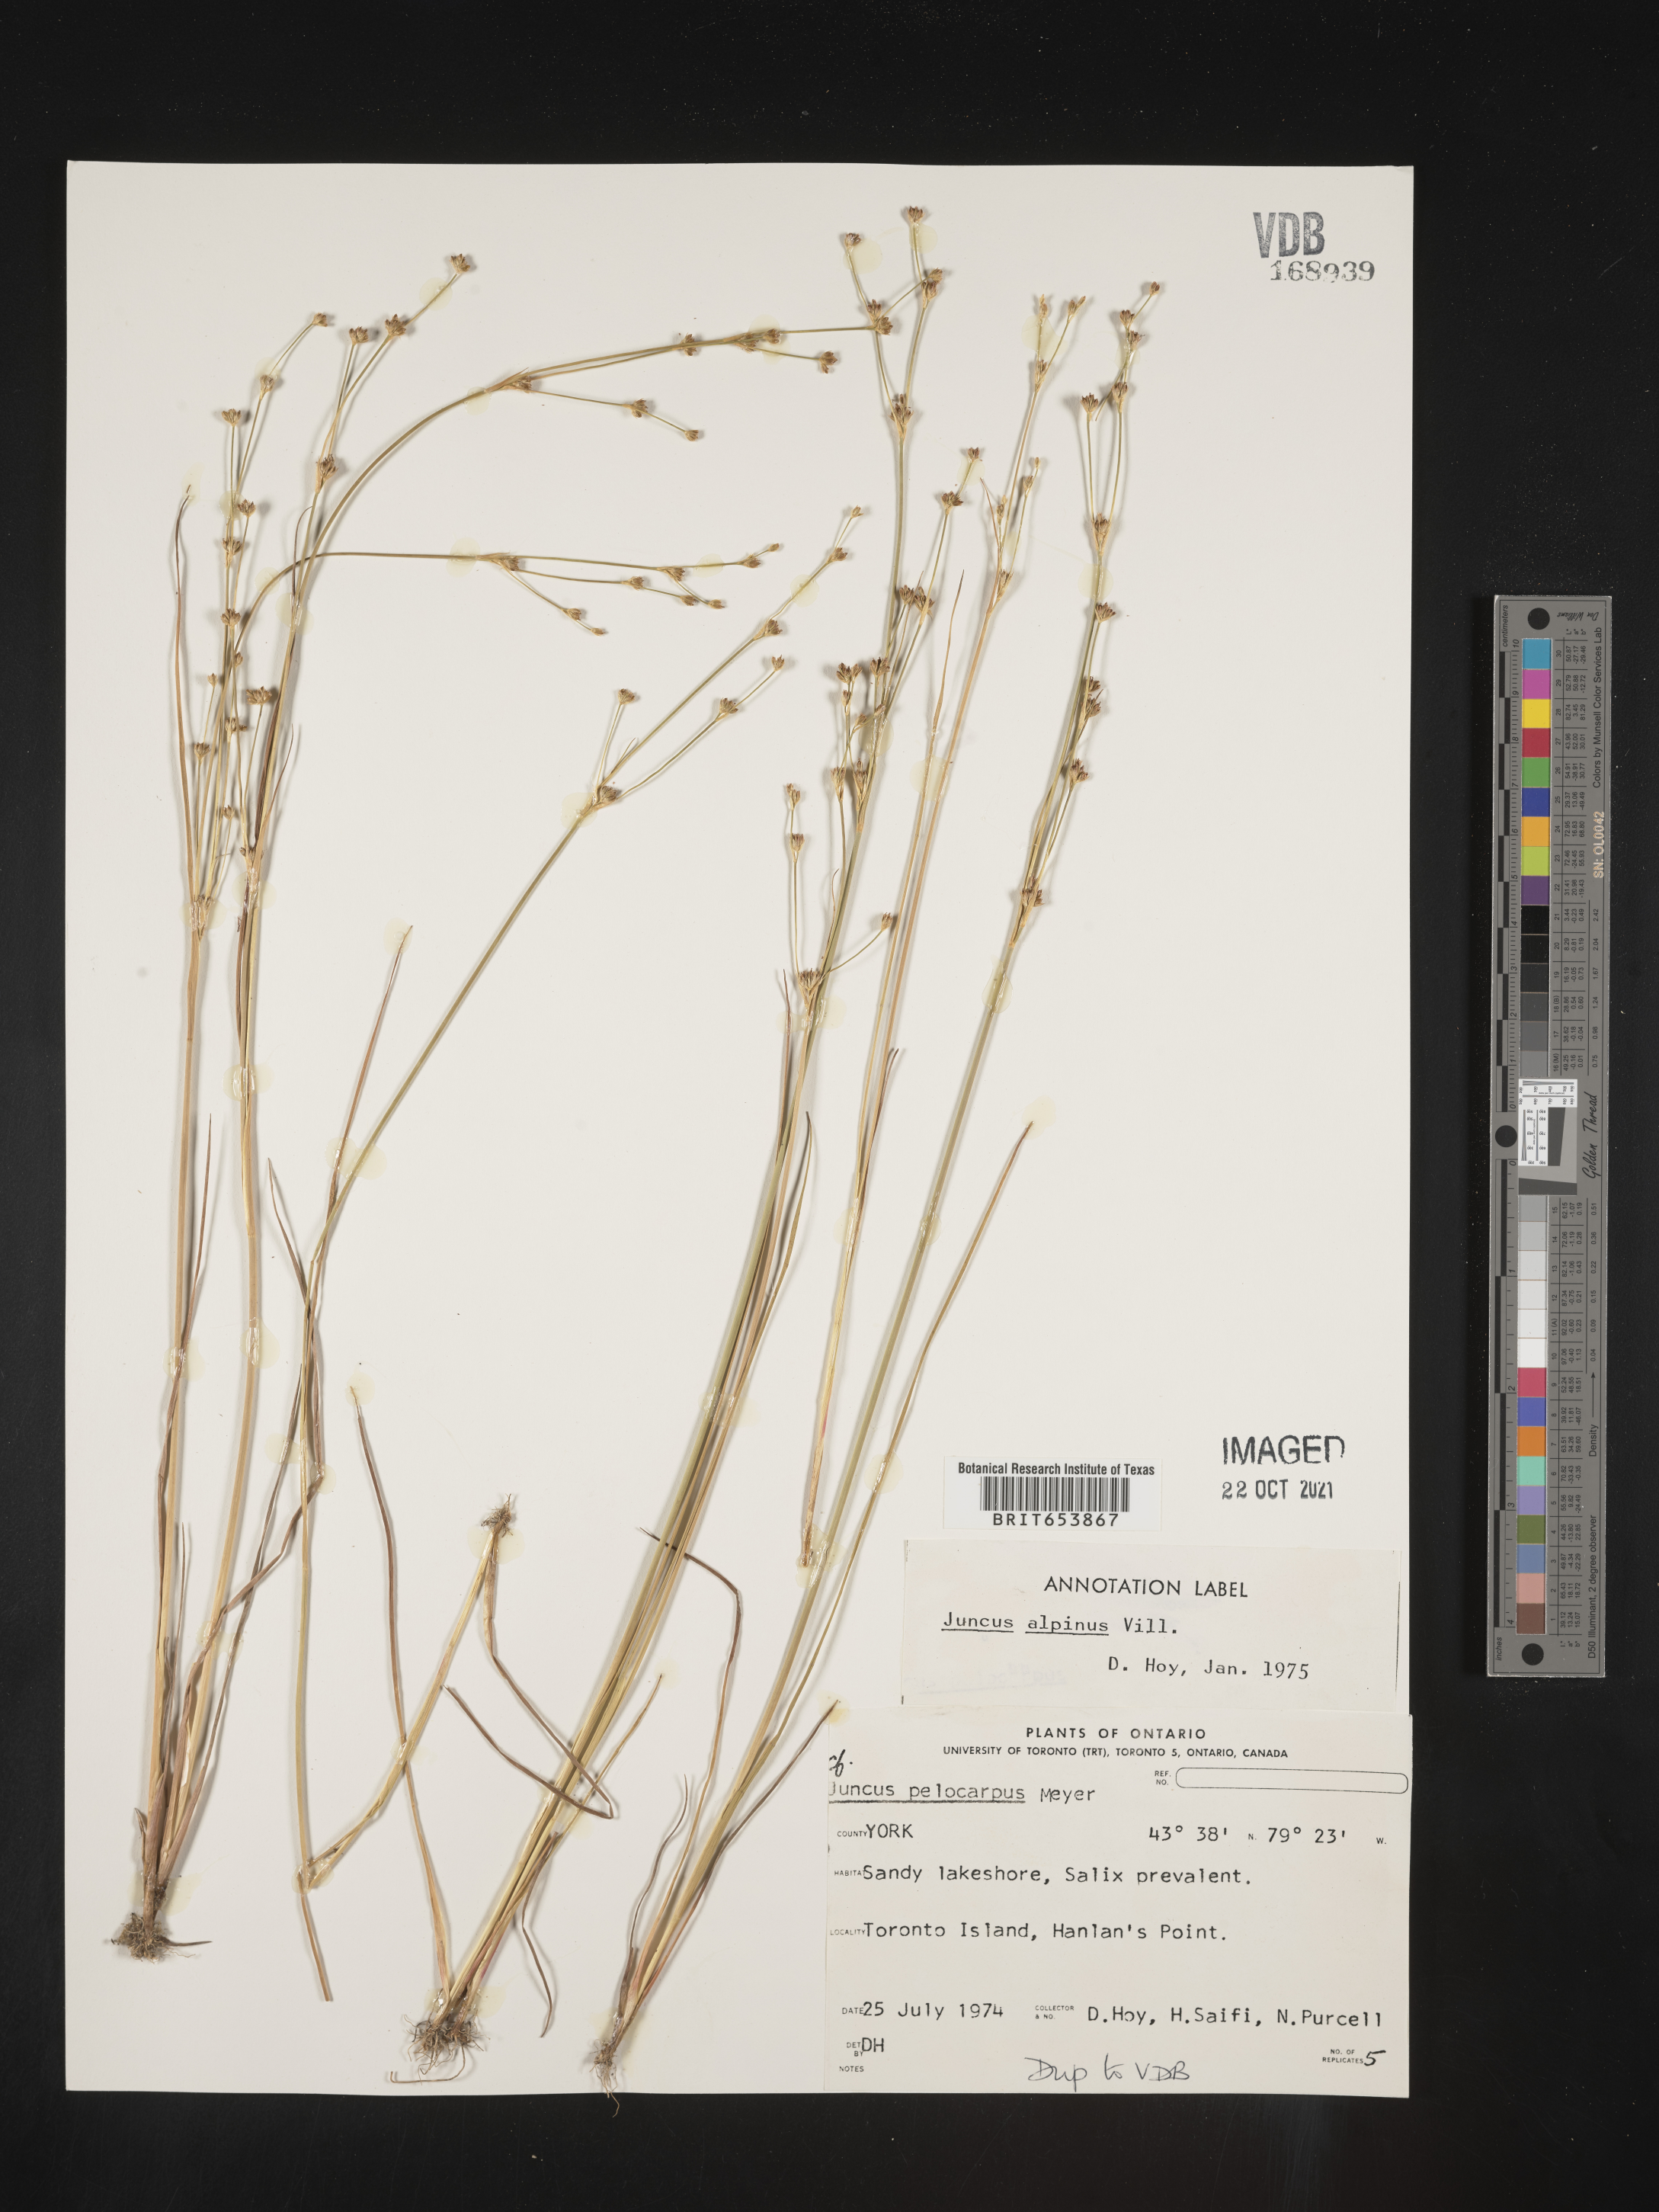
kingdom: Plantae
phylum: Tracheophyta
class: Liliopsida
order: Poales
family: Juncaceae
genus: Juncus
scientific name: Juncus alpinoarticulatus
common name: Alpine rush
